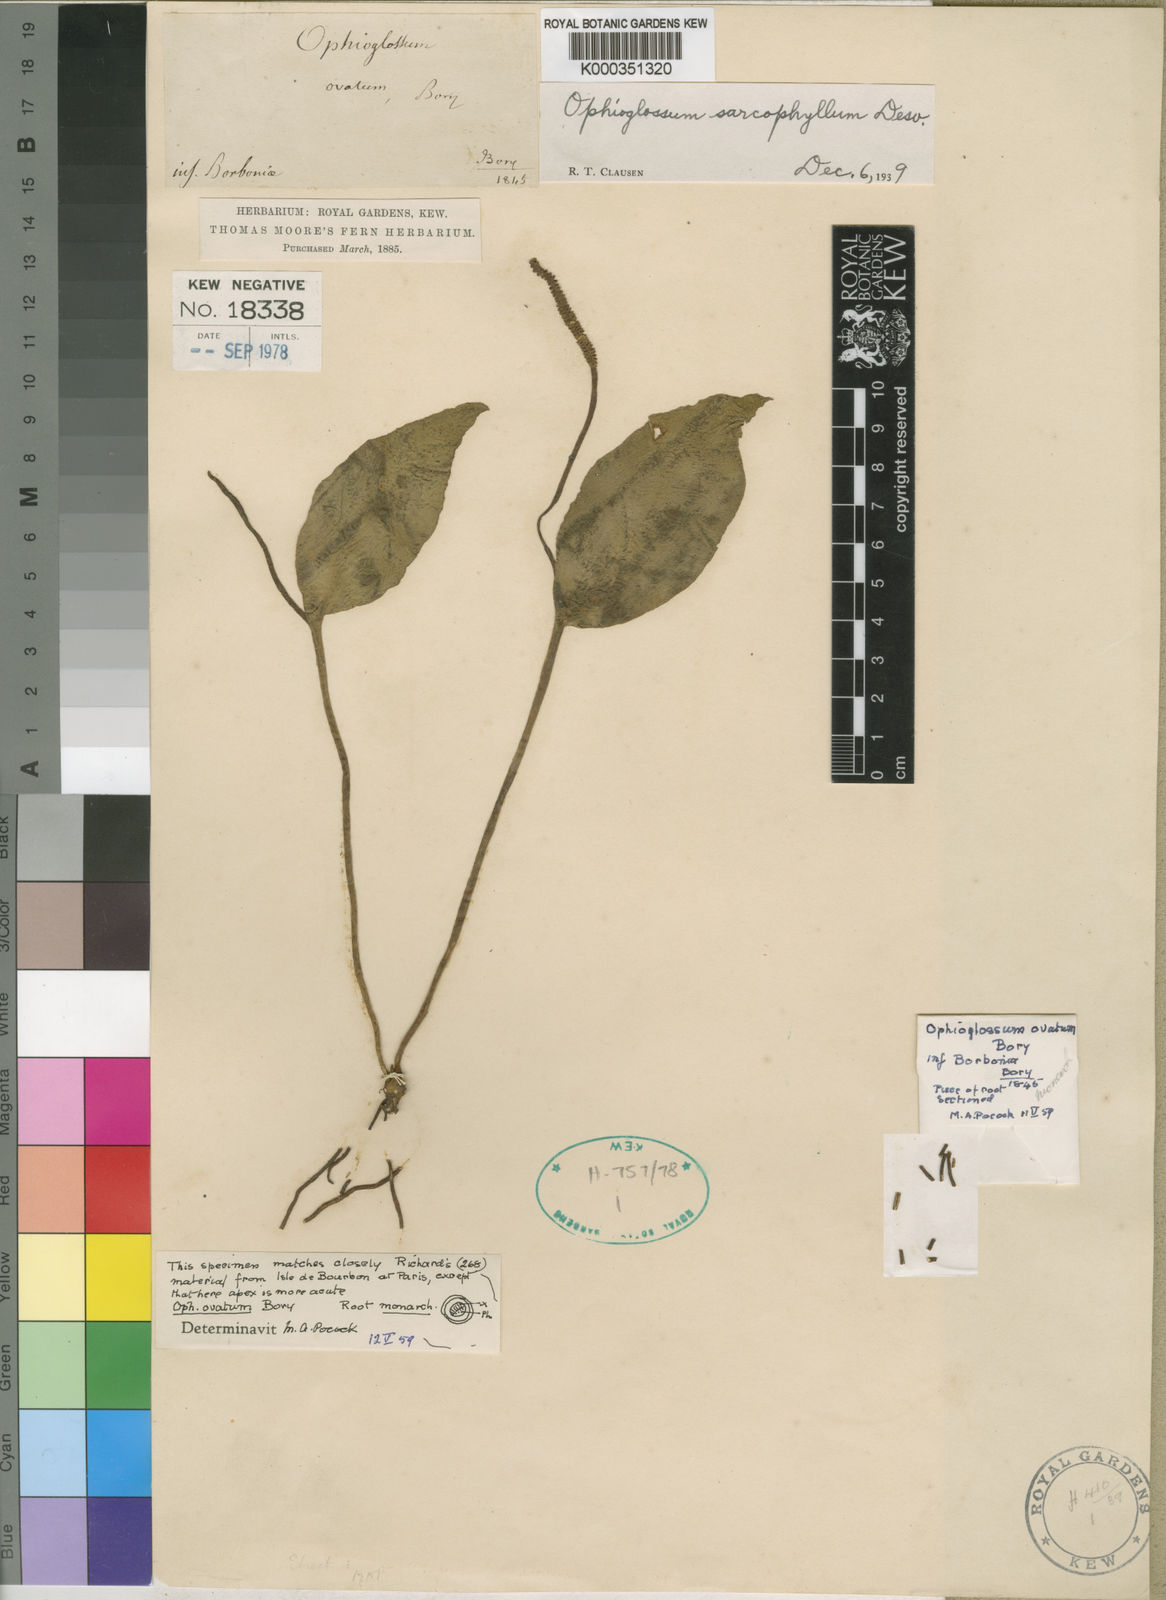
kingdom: Plantae
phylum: Tracheophyta
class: Polypodiopsida
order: Ophioglossales
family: Ophioglossaceae
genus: Ophioglossum
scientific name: Ophioglossum vulgatum
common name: Adder's-tongue
